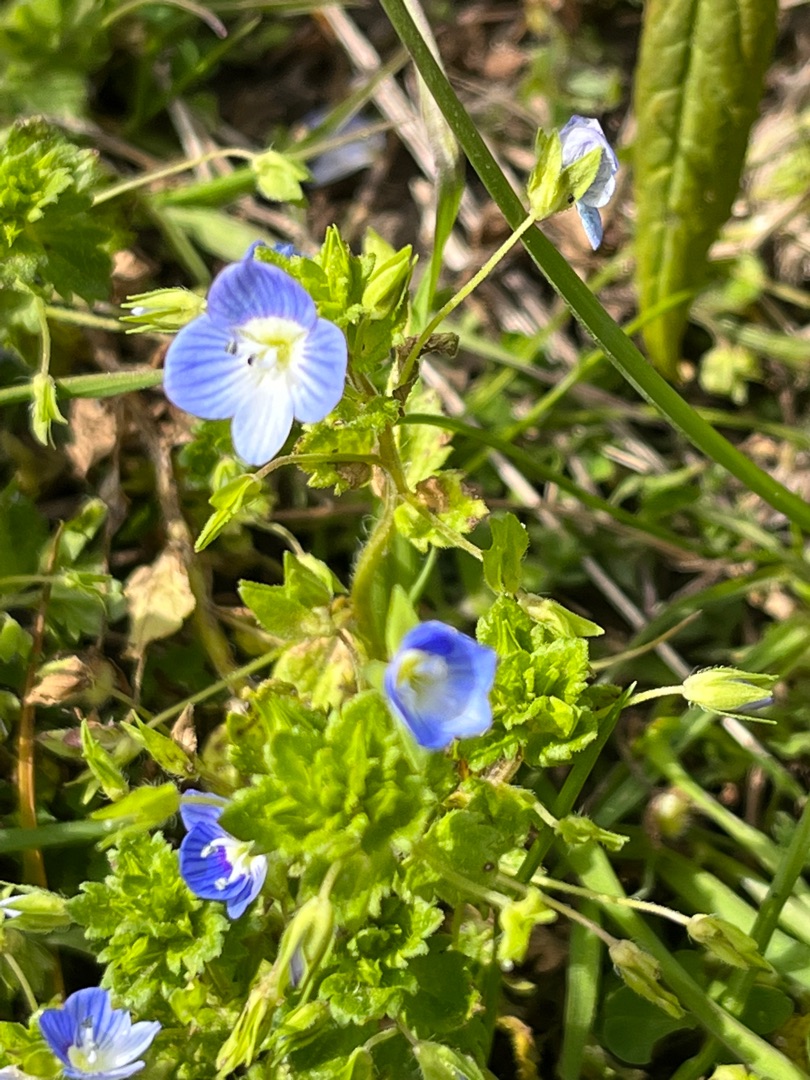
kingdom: Plantae
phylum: Tracheophyta
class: Magnoliopsida
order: Lamiales
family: Plantaginaceae
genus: Veronica
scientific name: Veronica persica
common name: Storkronet ærenpris
